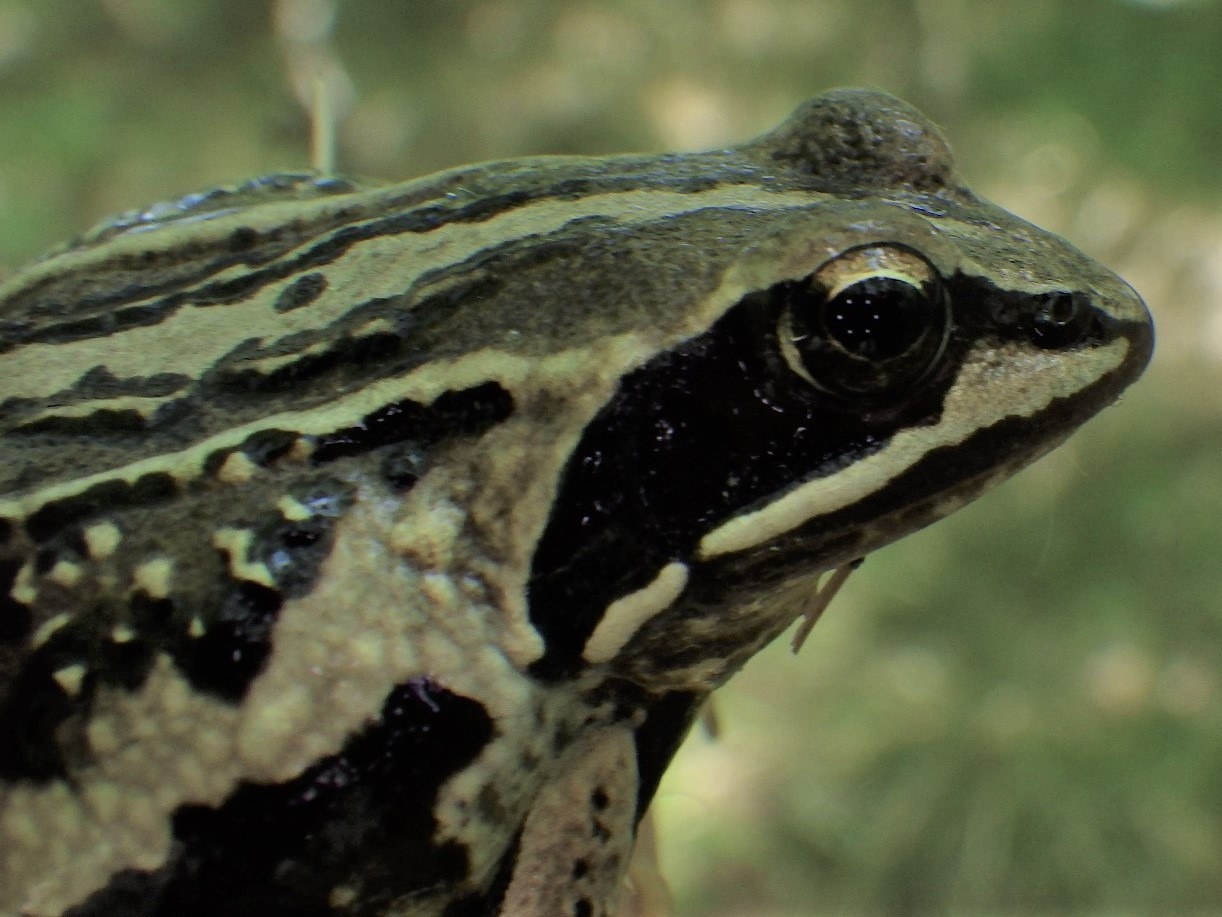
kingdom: Animalia
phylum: Chordata
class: Amphibia
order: Anura
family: Ranidae
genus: Rana
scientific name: Rana arvalis
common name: Spidssnudet frø
